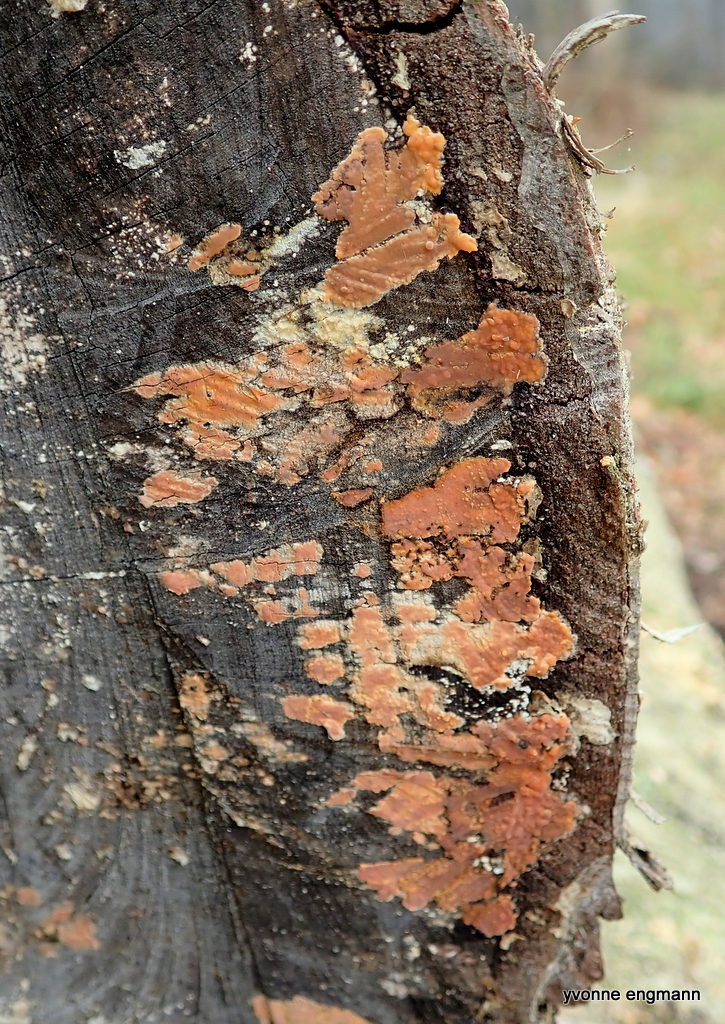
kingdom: Fungi
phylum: Basidiomycota
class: Agaricomycetes
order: Russulales
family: Peniophoraceae
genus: Peniophora
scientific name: Peniophora incarnata
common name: laksefarvet voksskind
